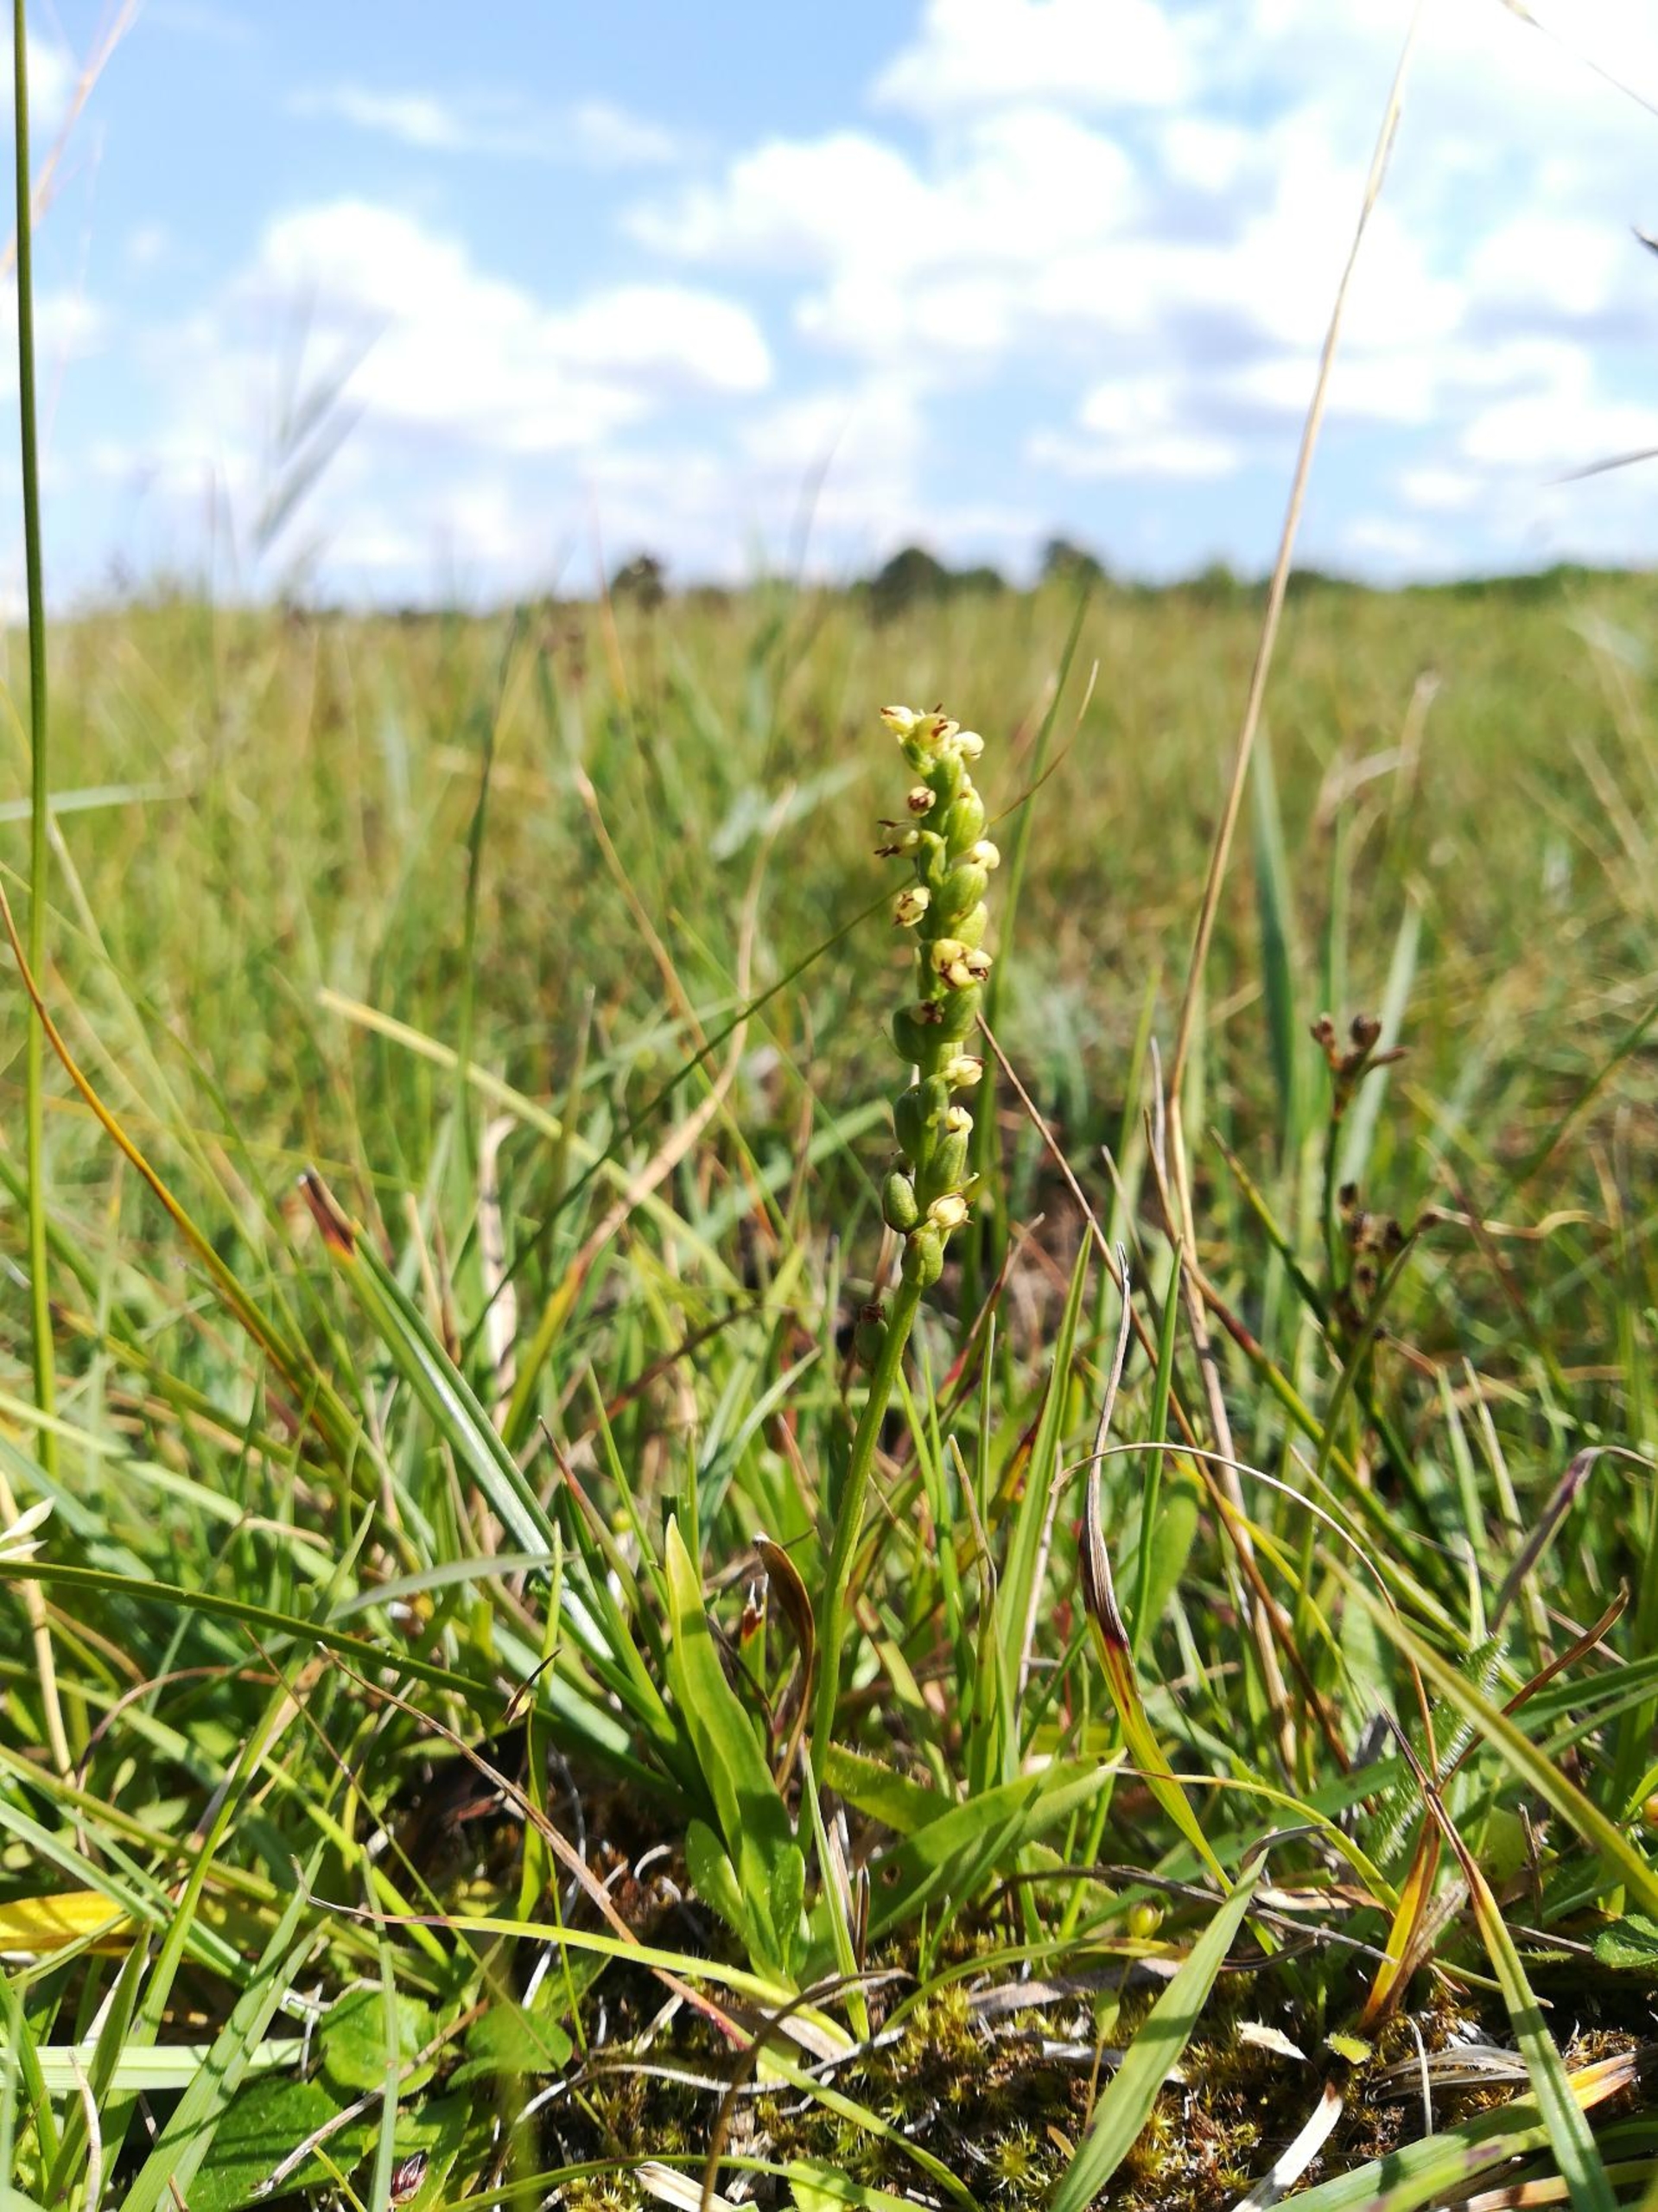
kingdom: Plantae
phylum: Tracheophyta
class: Liliopsida
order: Asparagales
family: Orchidaceae
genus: Herminium
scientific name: Herminium monorchis
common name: Pukkellæbe
